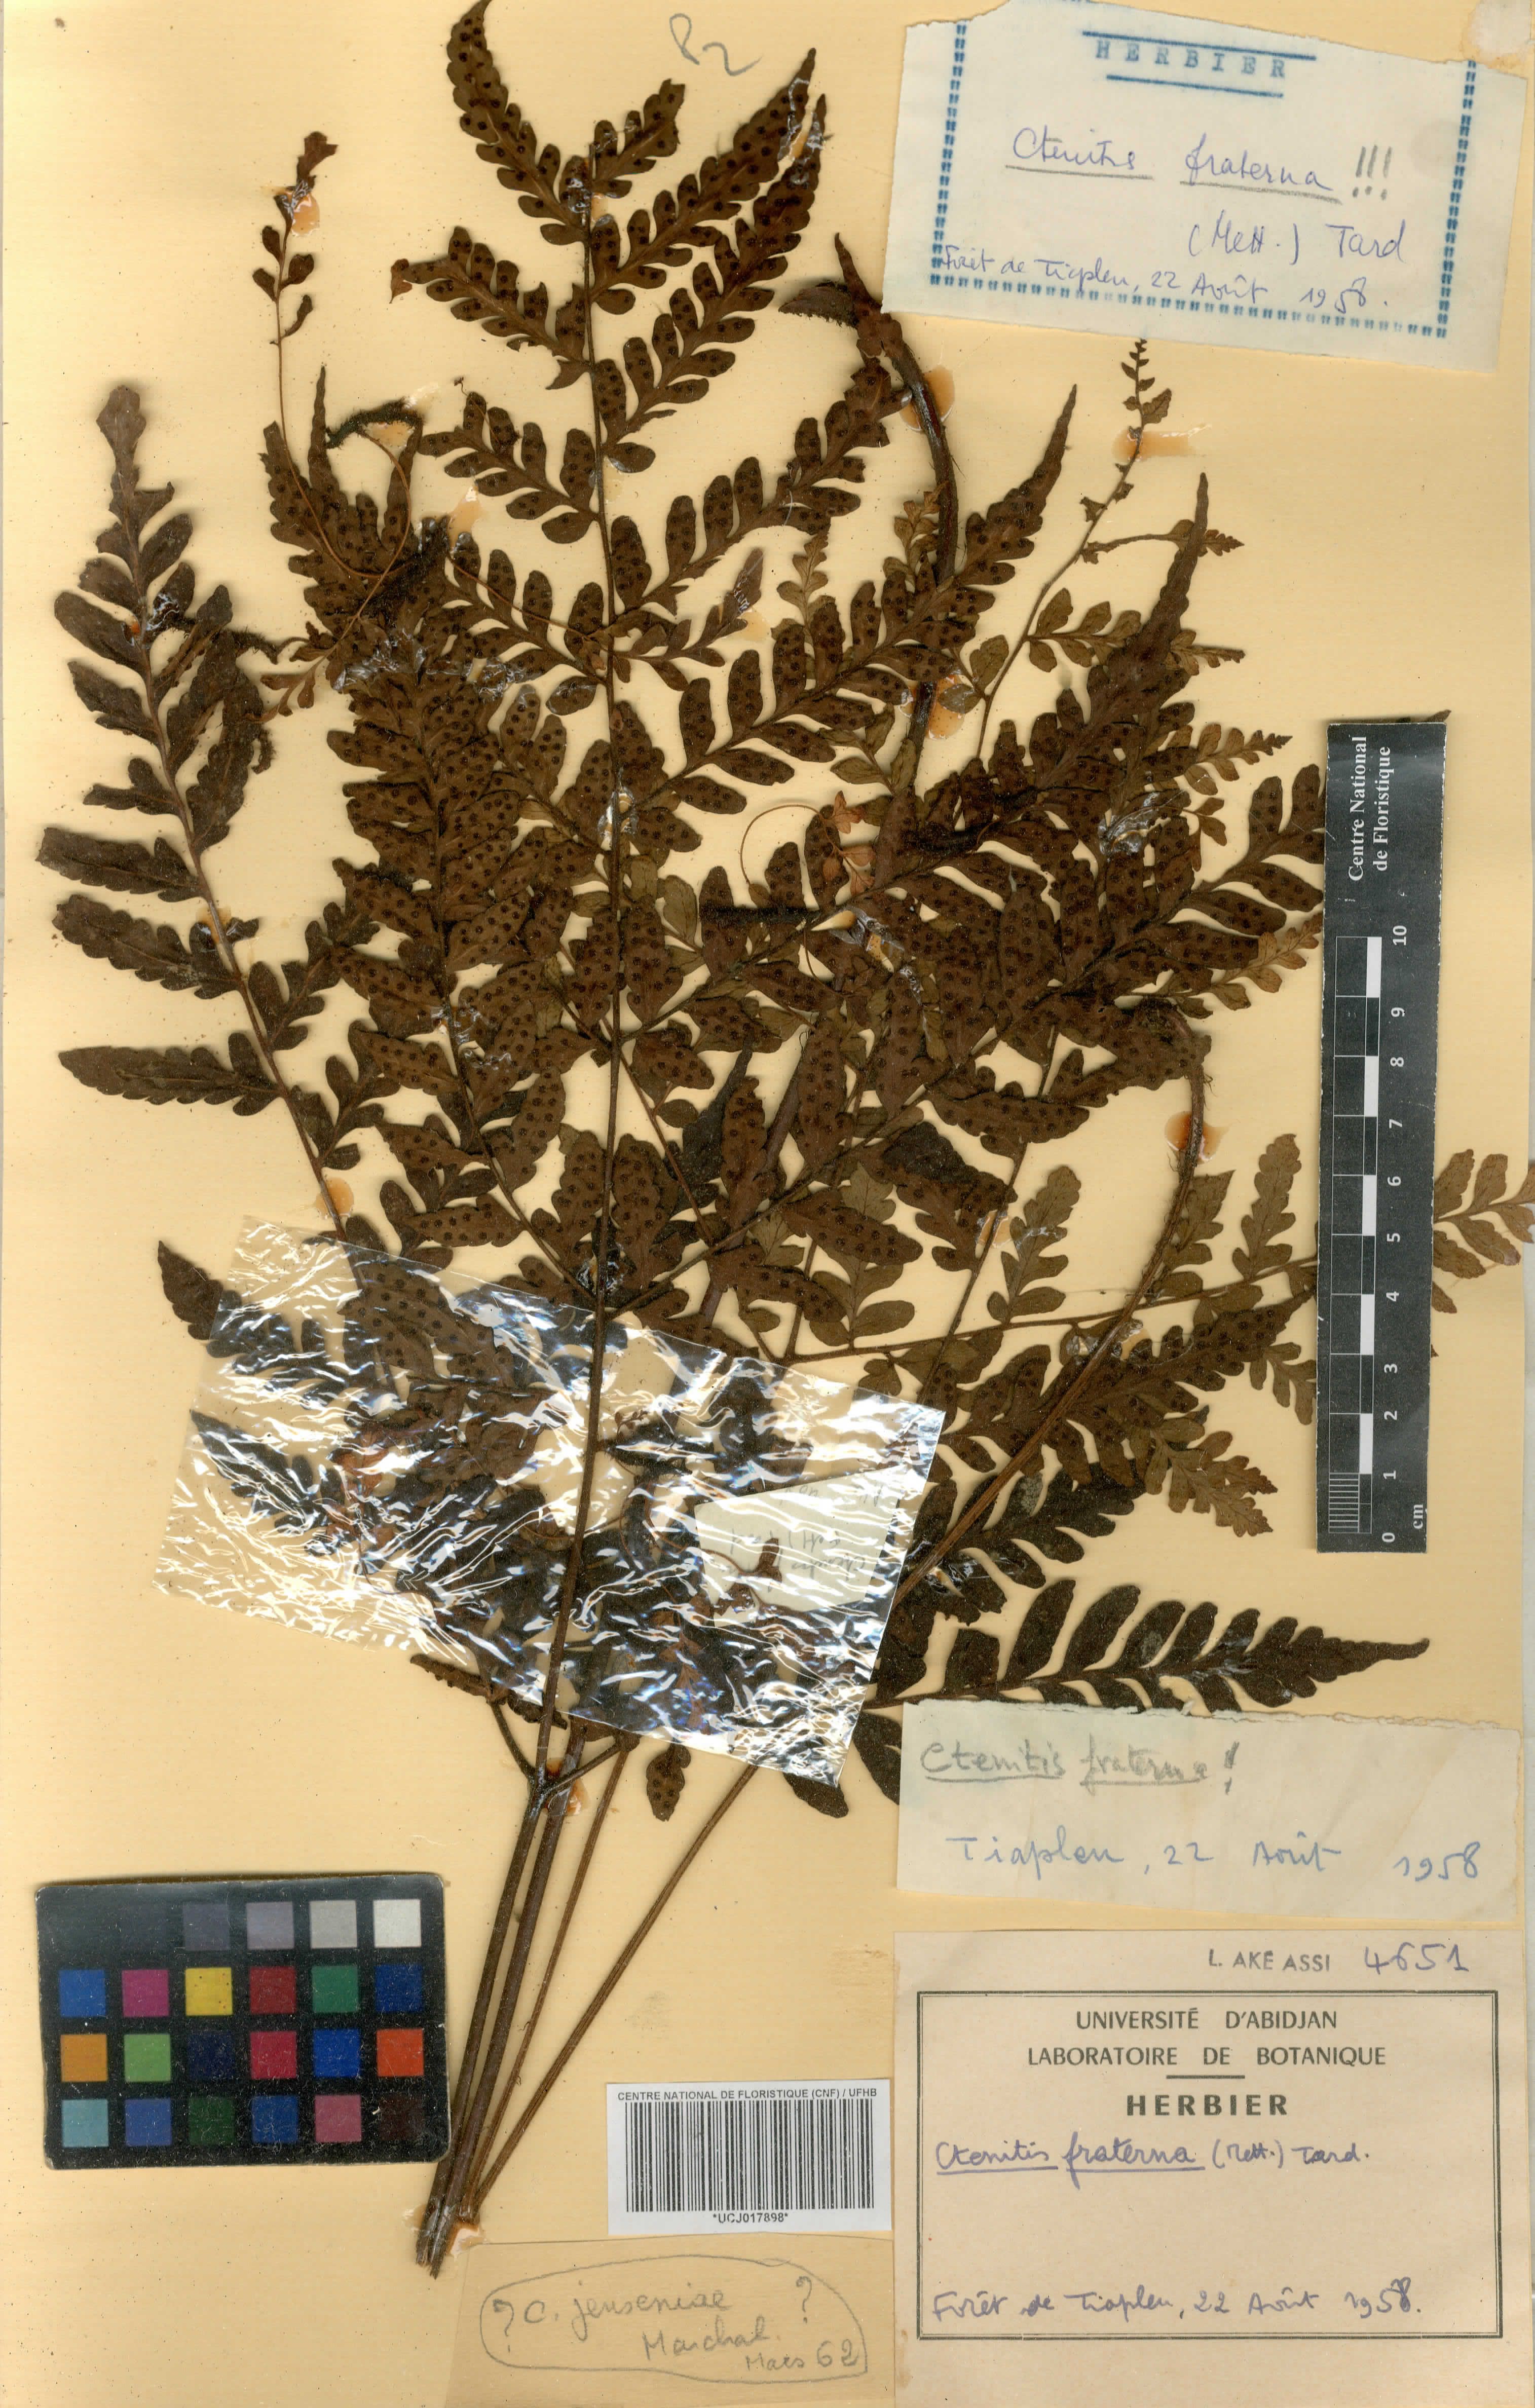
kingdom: Plantae
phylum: Tracheophyta
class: Polypodiopsida
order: Polypodiales
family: Tectariaceae
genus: Triplophyllum
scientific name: Triplophyllum fraternum
